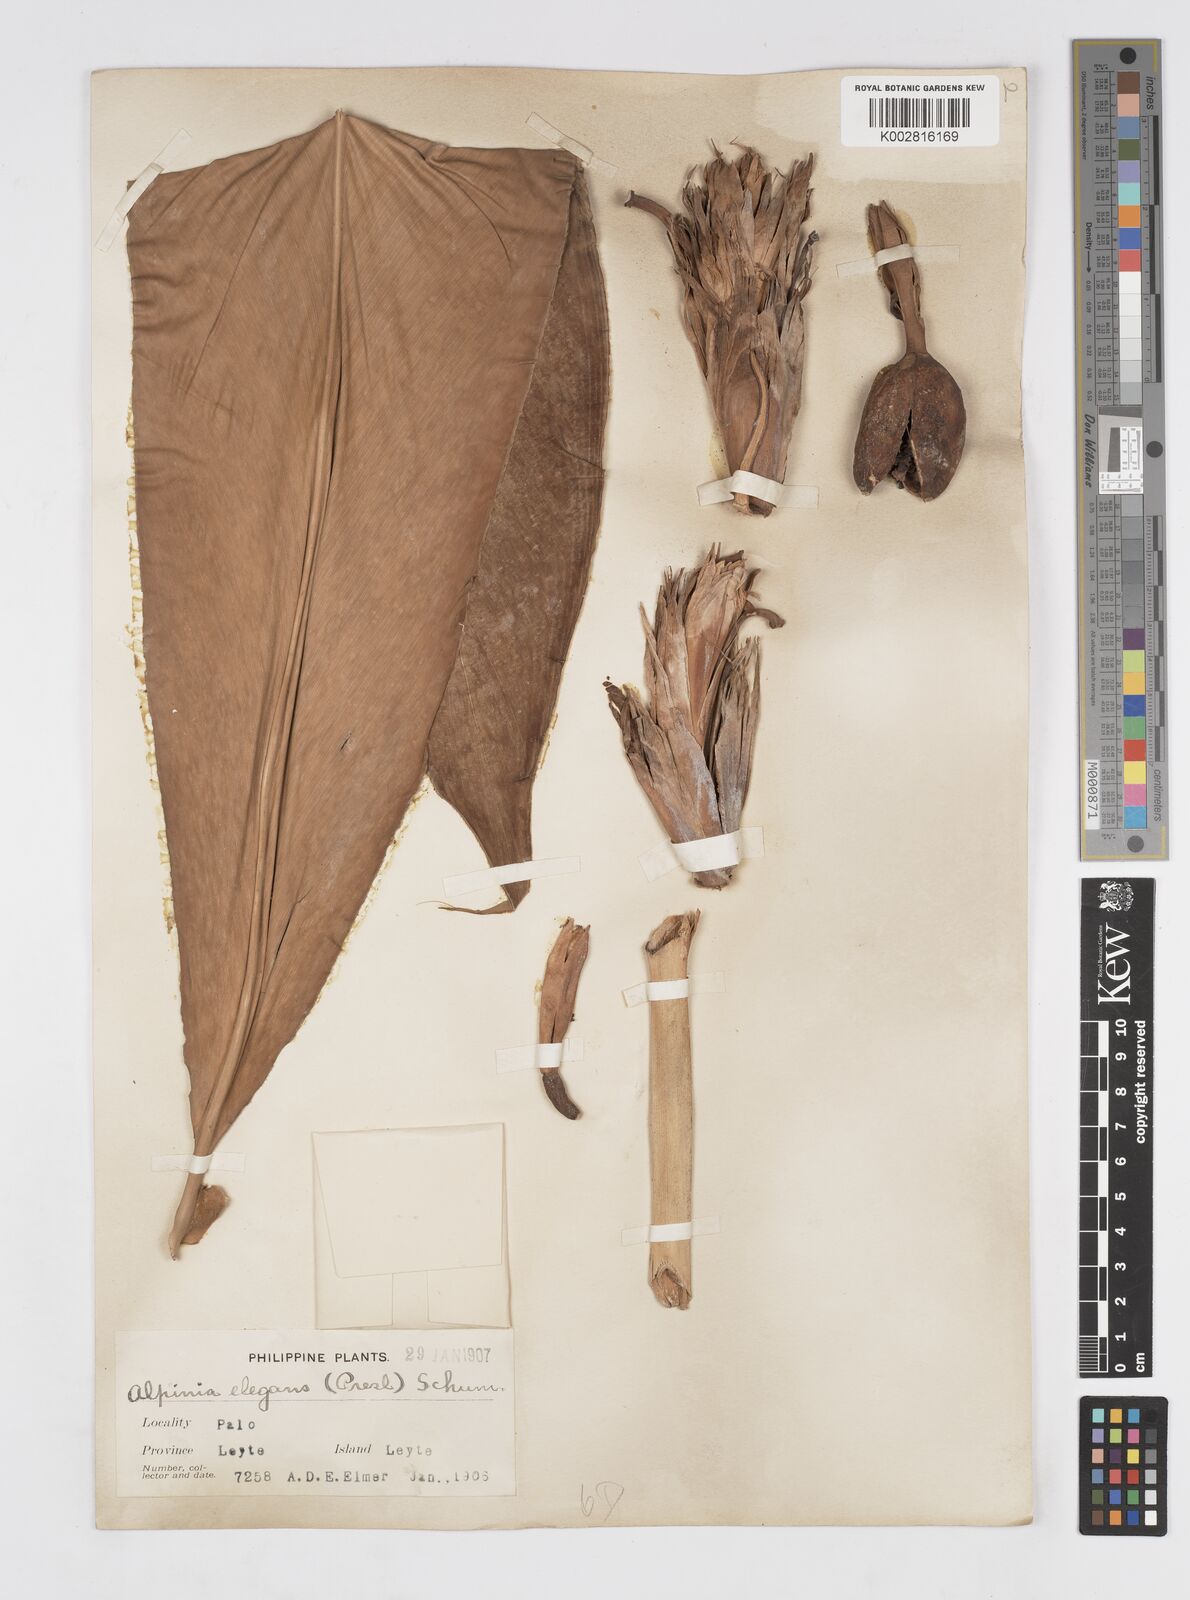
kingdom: Plantae
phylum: Tracheophyta
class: Liliopsida
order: Zingiberales
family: Zingiberaceae
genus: Alpinia
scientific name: Alpinia elegans
